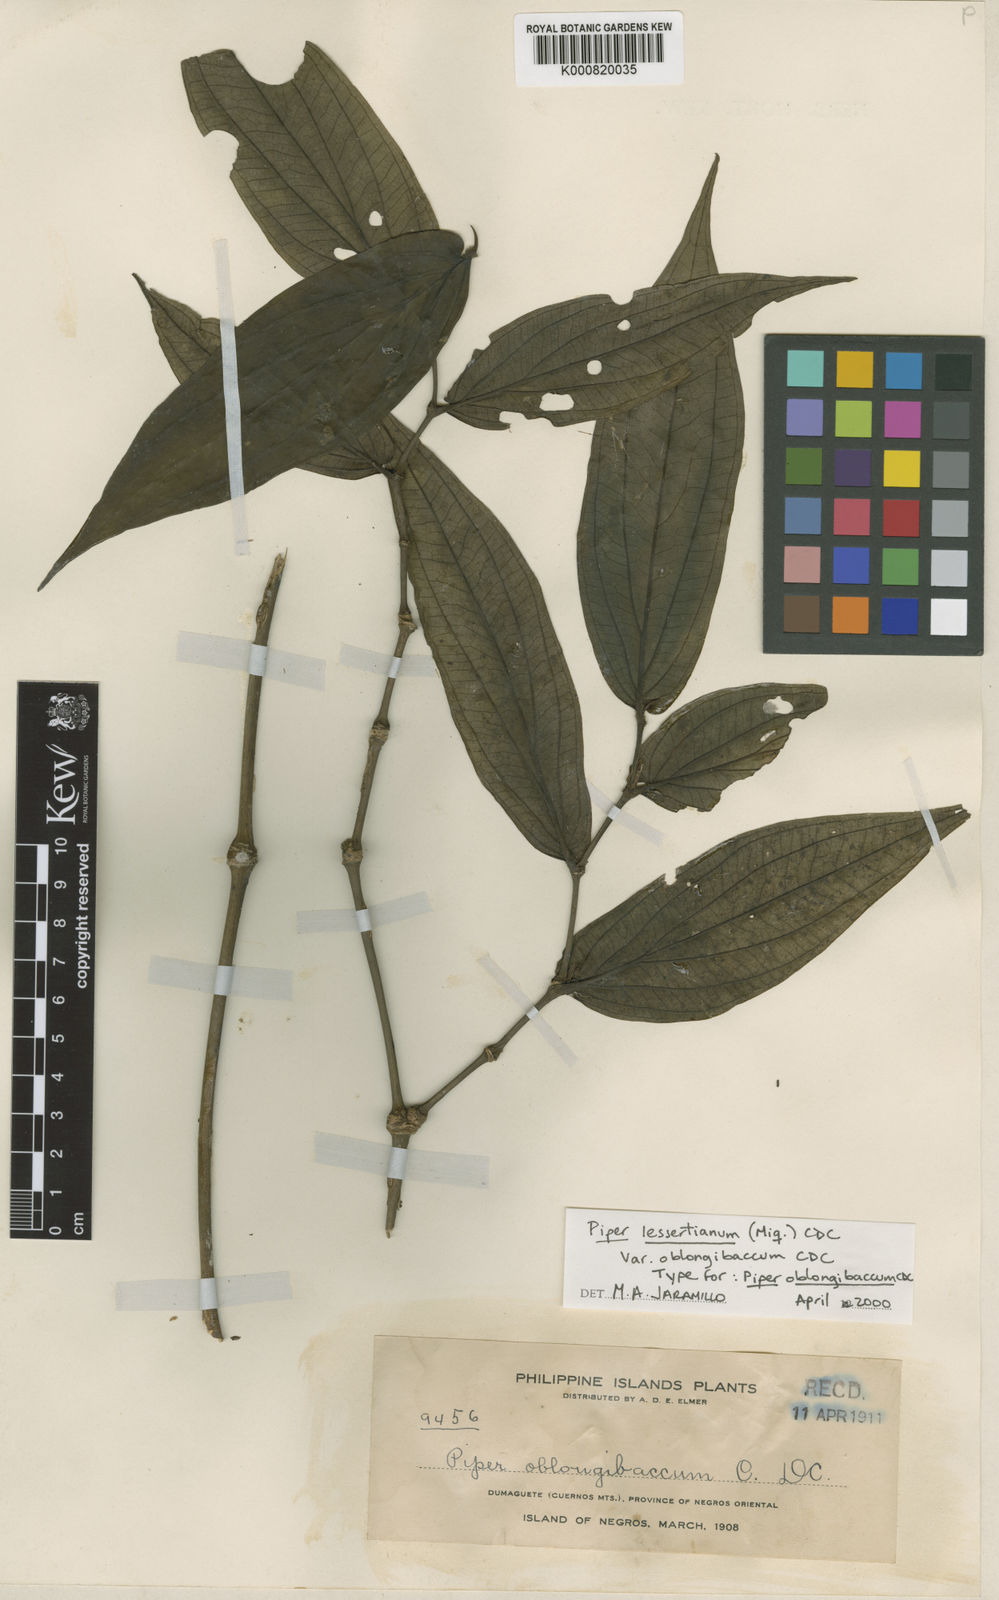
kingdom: Plantae
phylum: Tracheophyta
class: Magnoliopsida
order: Piperales
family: Piperaceae
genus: Piper
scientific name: Piper lessertianum
